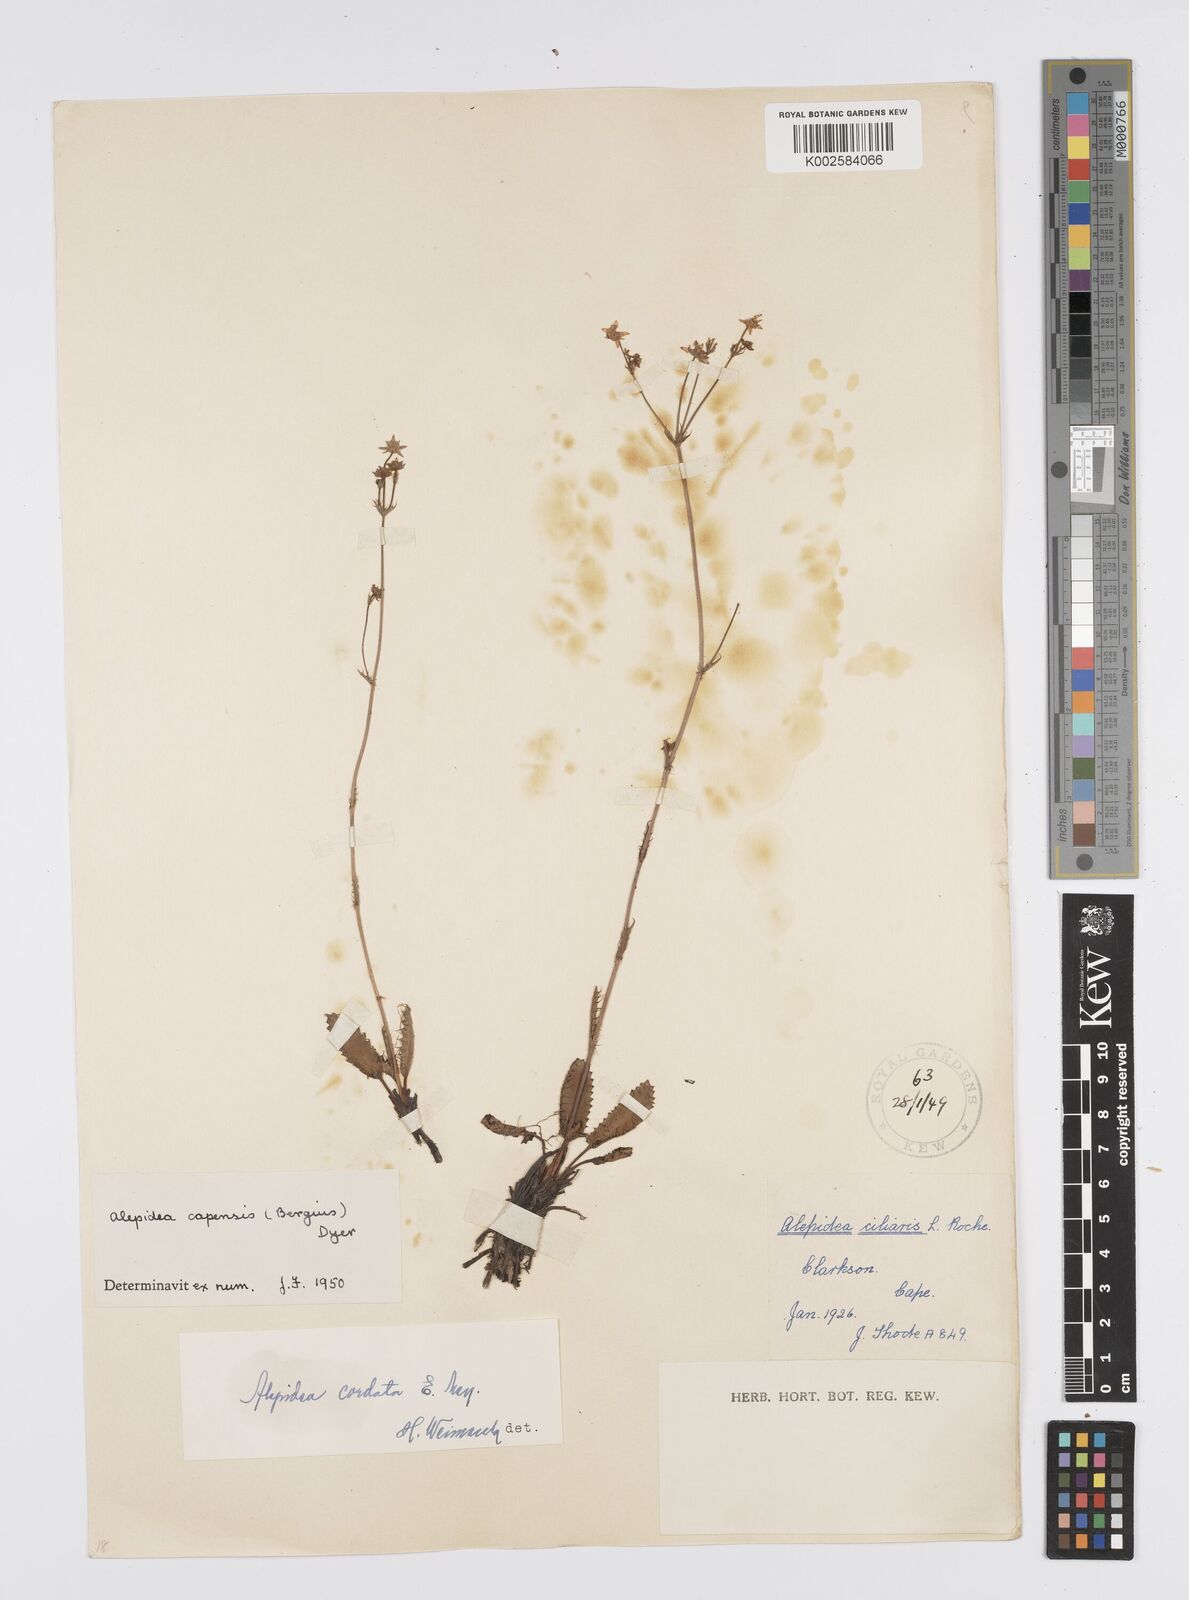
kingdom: Plantae
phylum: Tracheophyta
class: Magnoliopsida
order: Apiales
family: Apiaceae
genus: Alepidea
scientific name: Alepidea capensis
